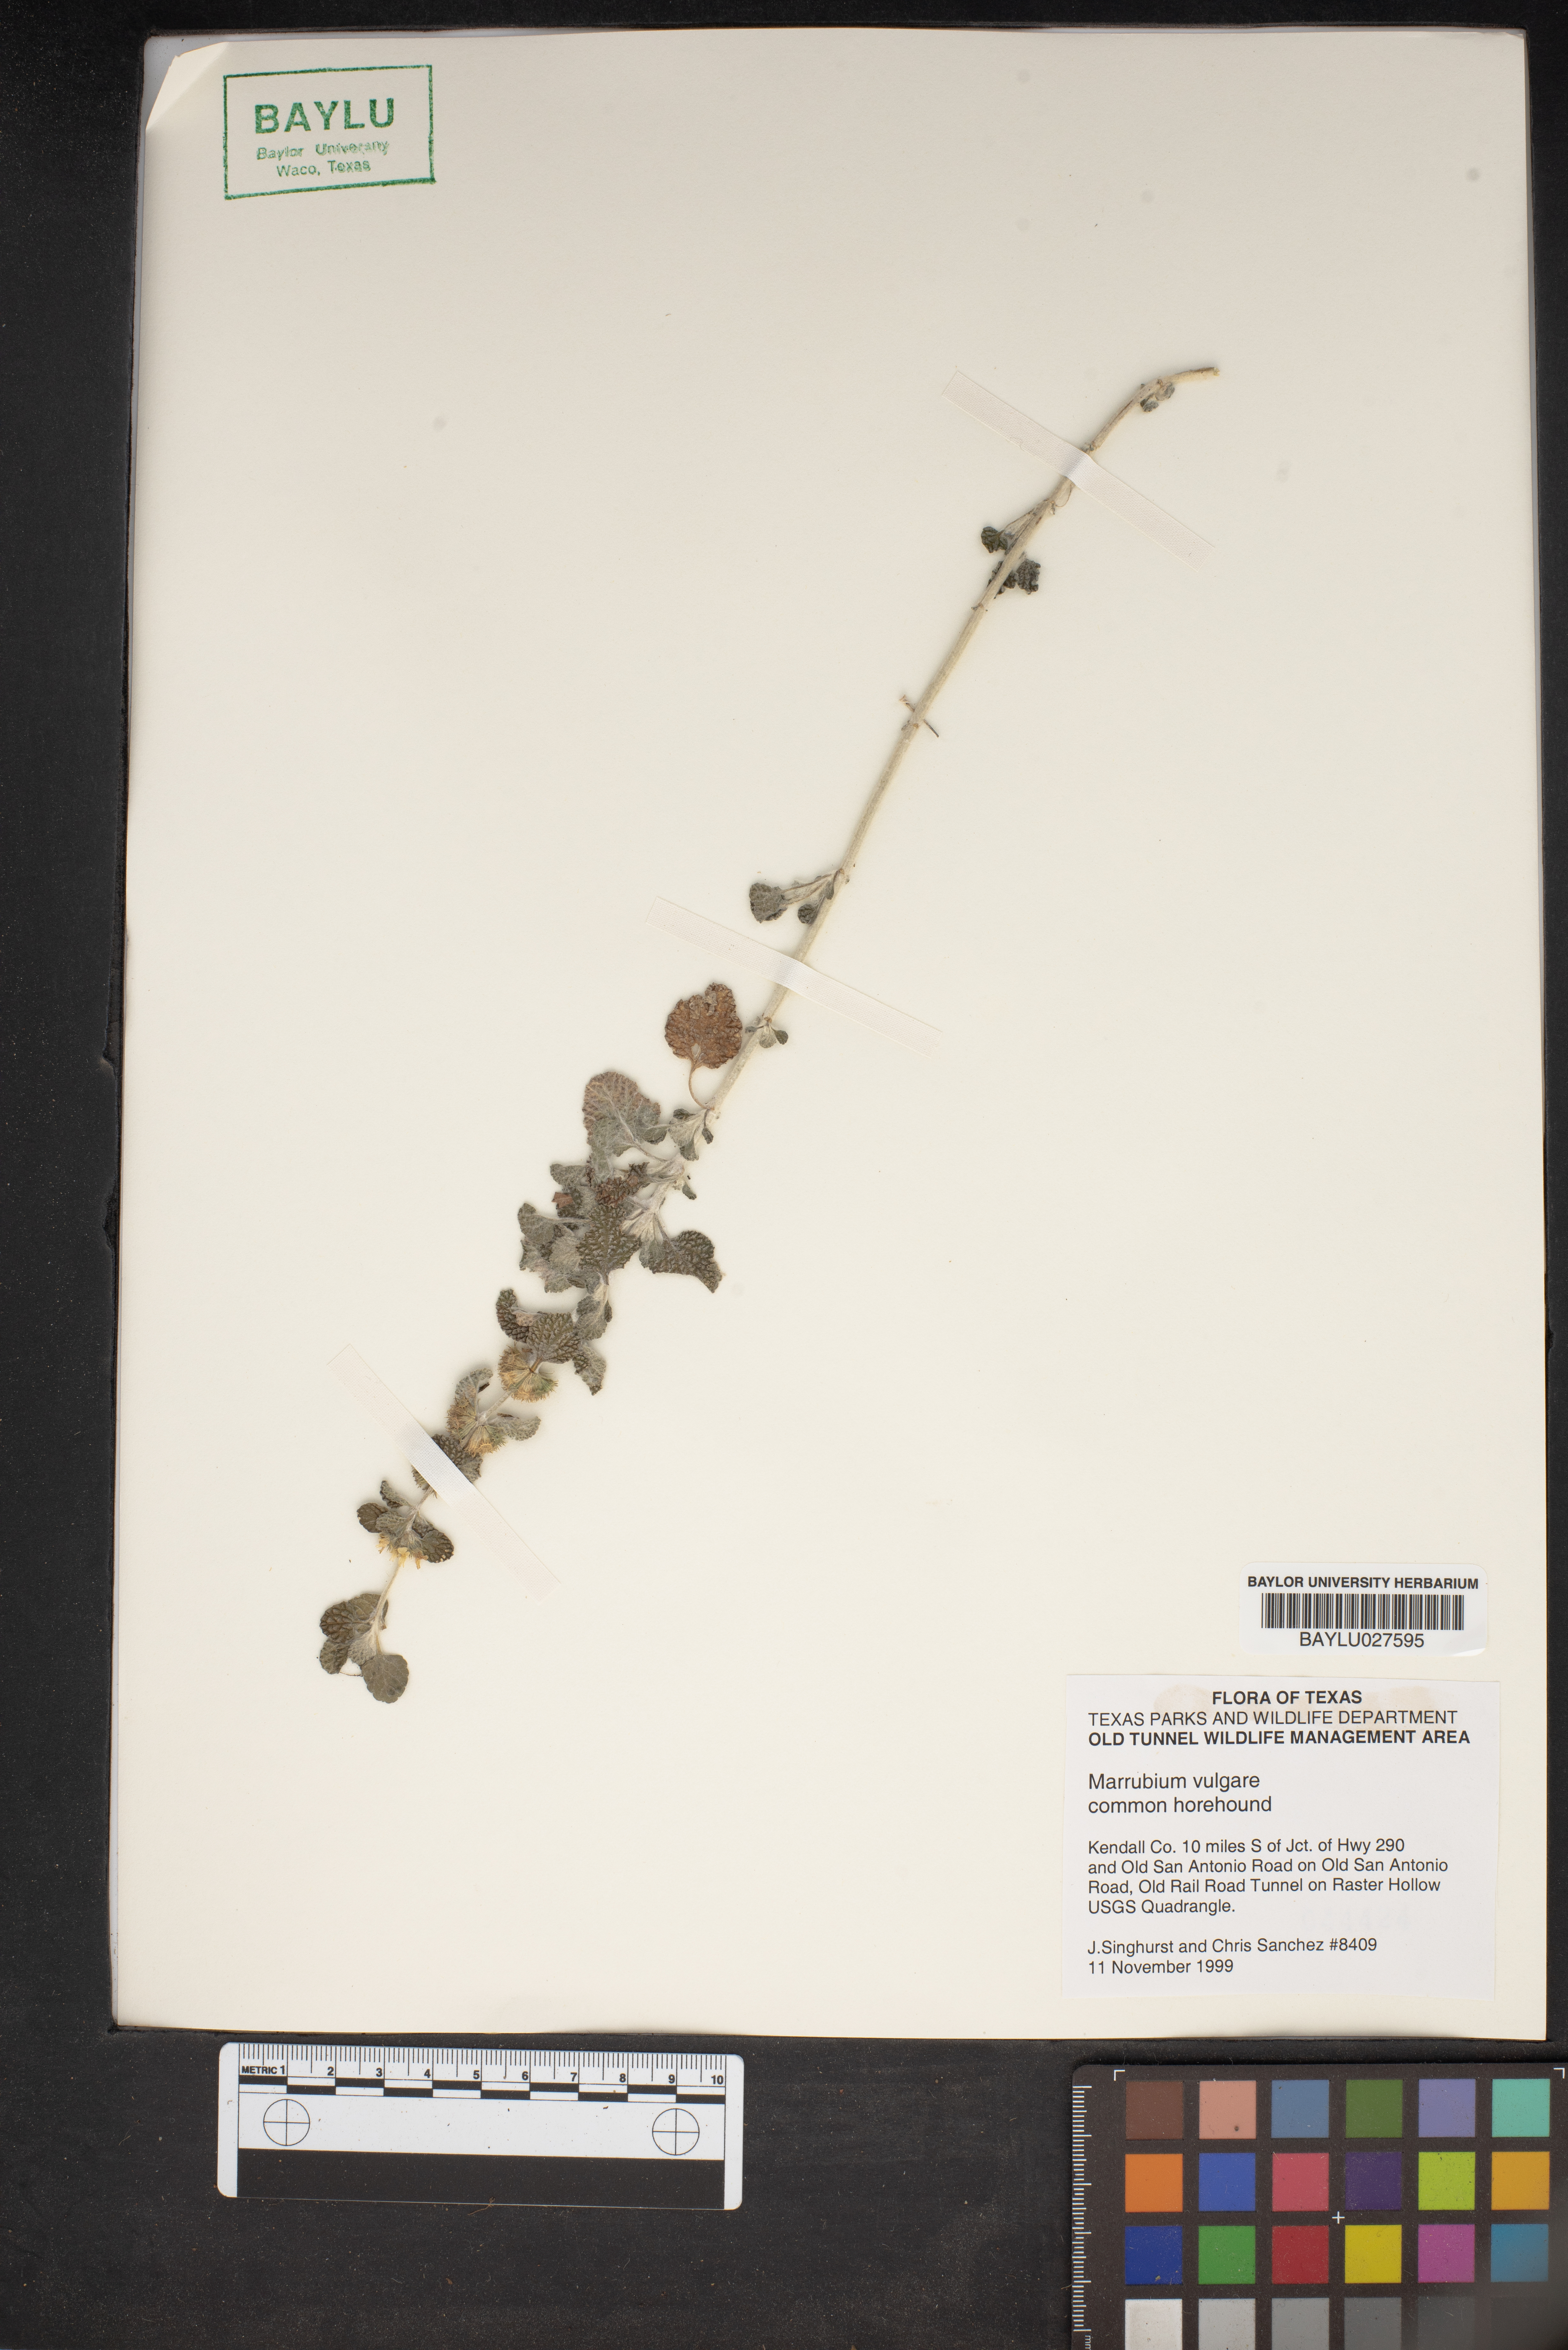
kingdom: Plantae
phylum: Tracheophyta
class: Magnoliopsida
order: Lamiales
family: Lamiaceae
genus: Marrubium
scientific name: Marrubium vulgare
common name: Horehound
